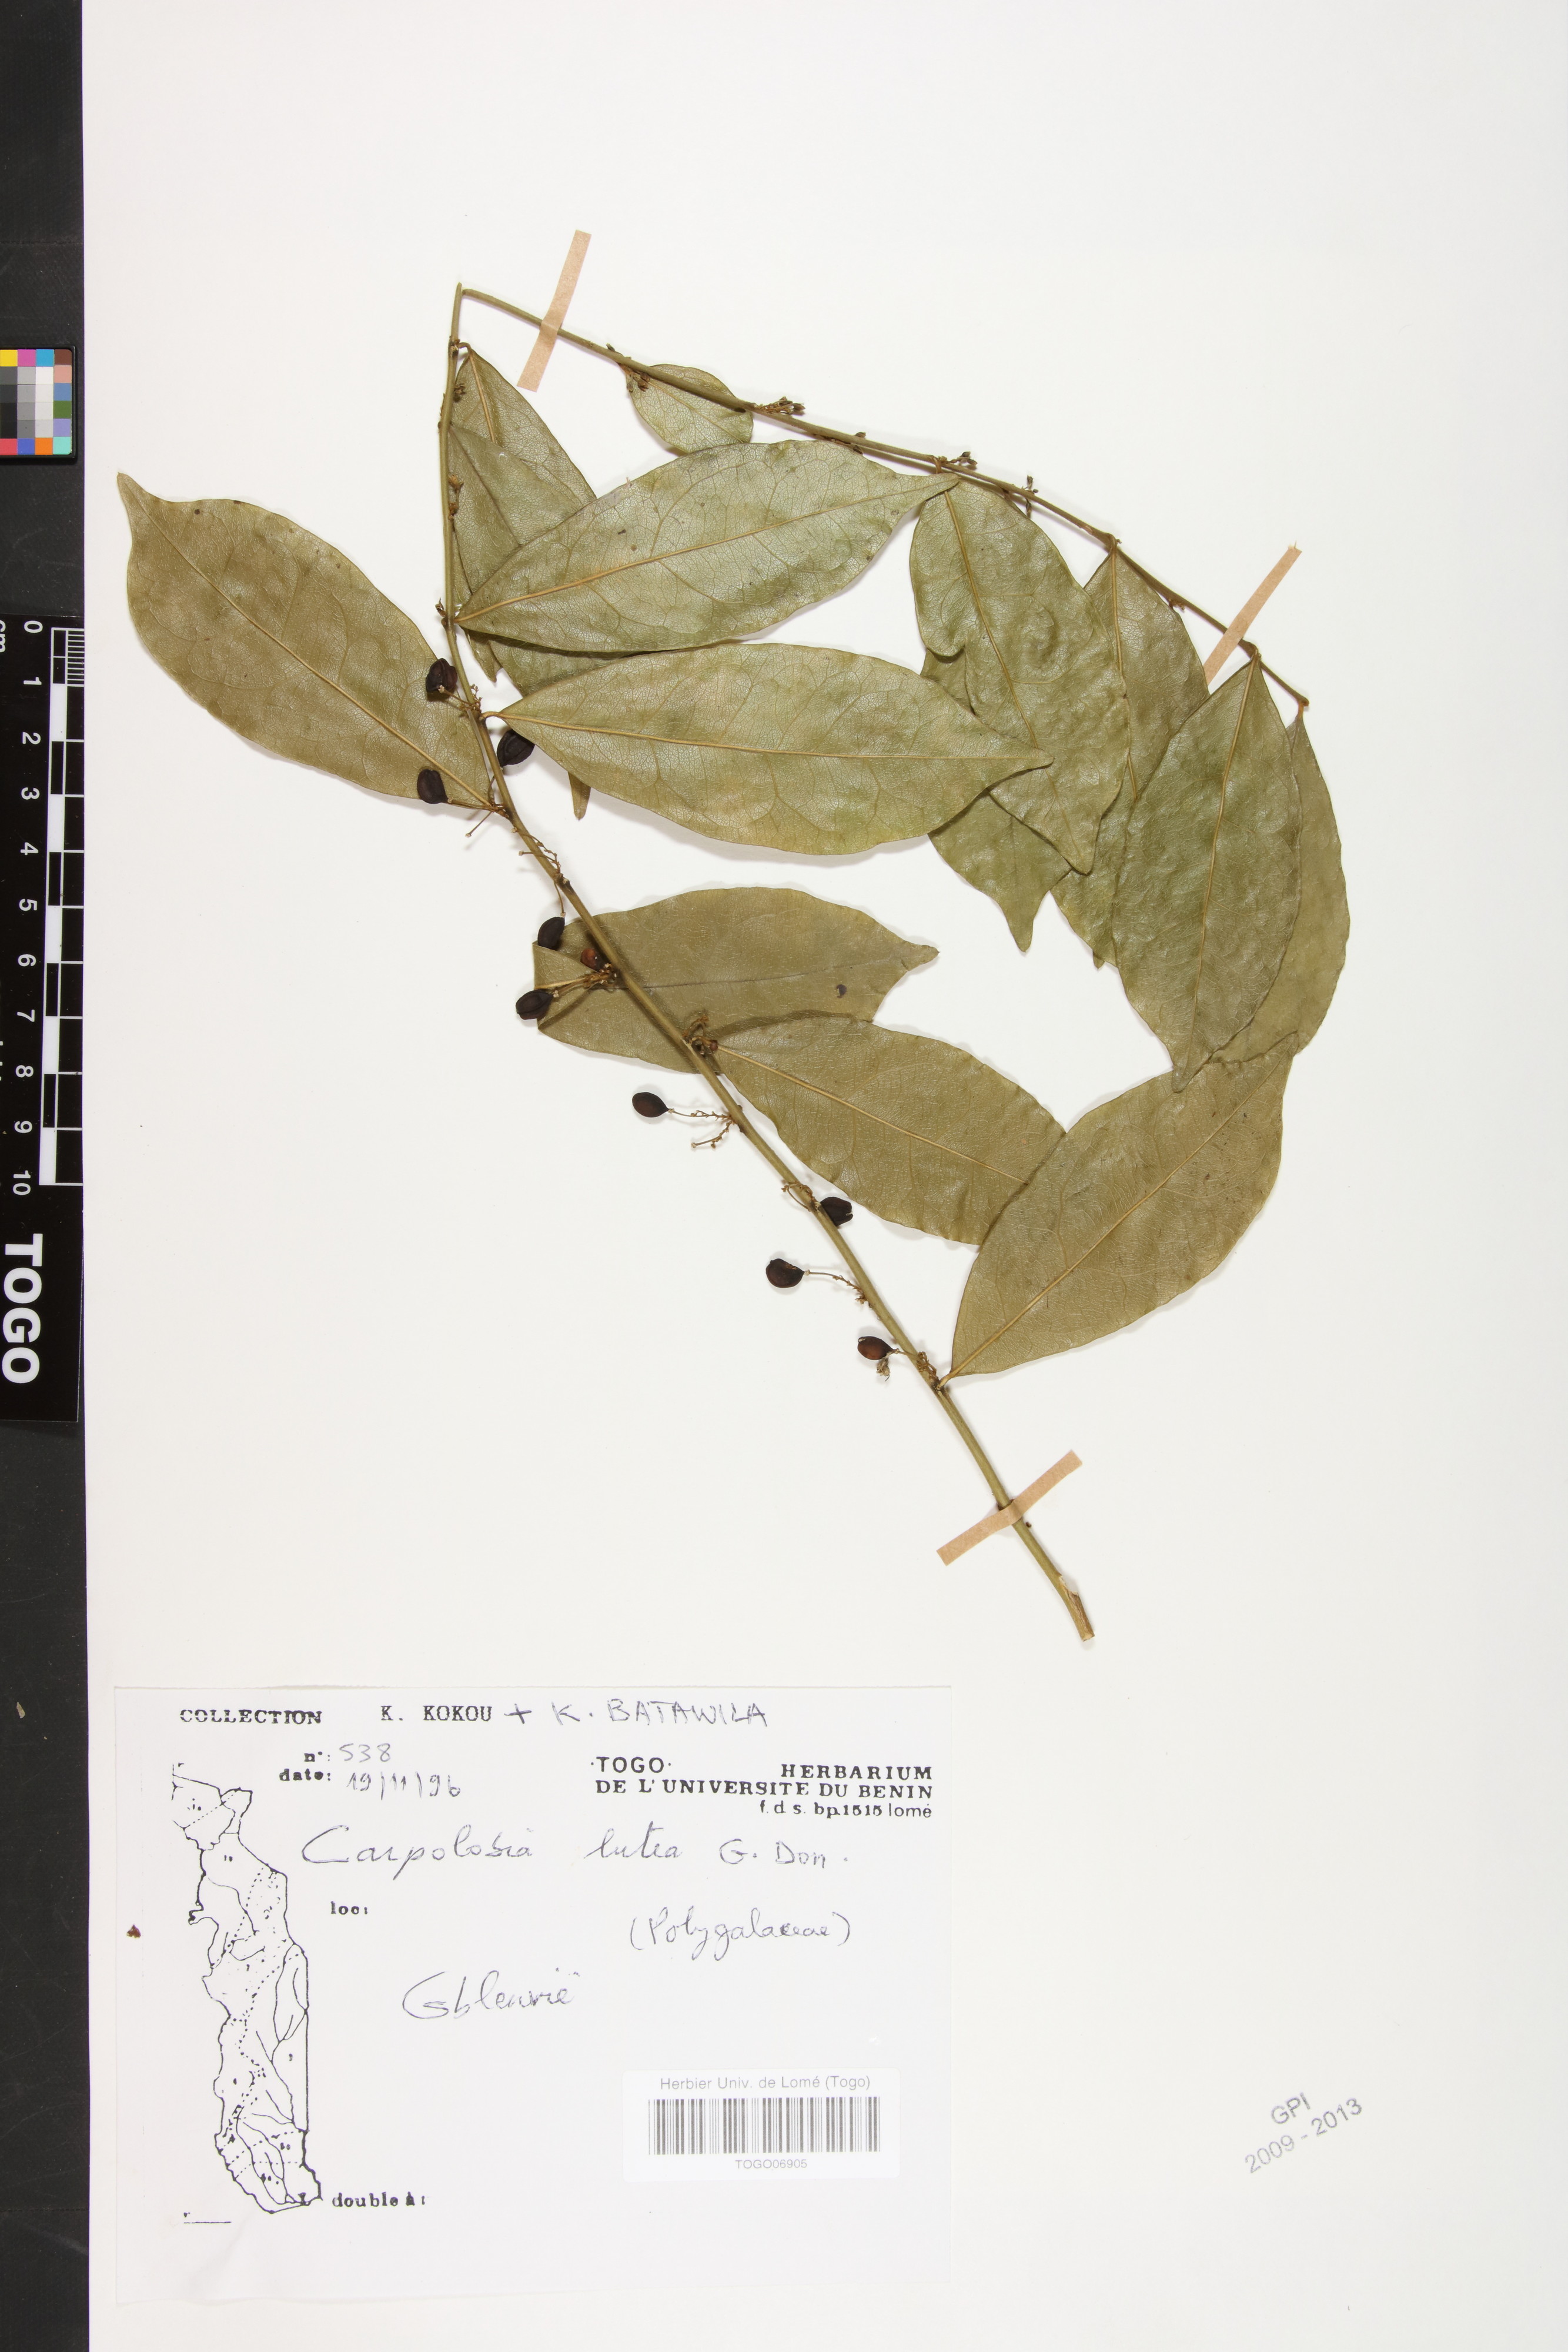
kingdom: Plantae
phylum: Tracheophyta
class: Magnoliopsida
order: Fabales
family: Polygalaceae
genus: Carpolobia
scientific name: Carpolobia lutea
